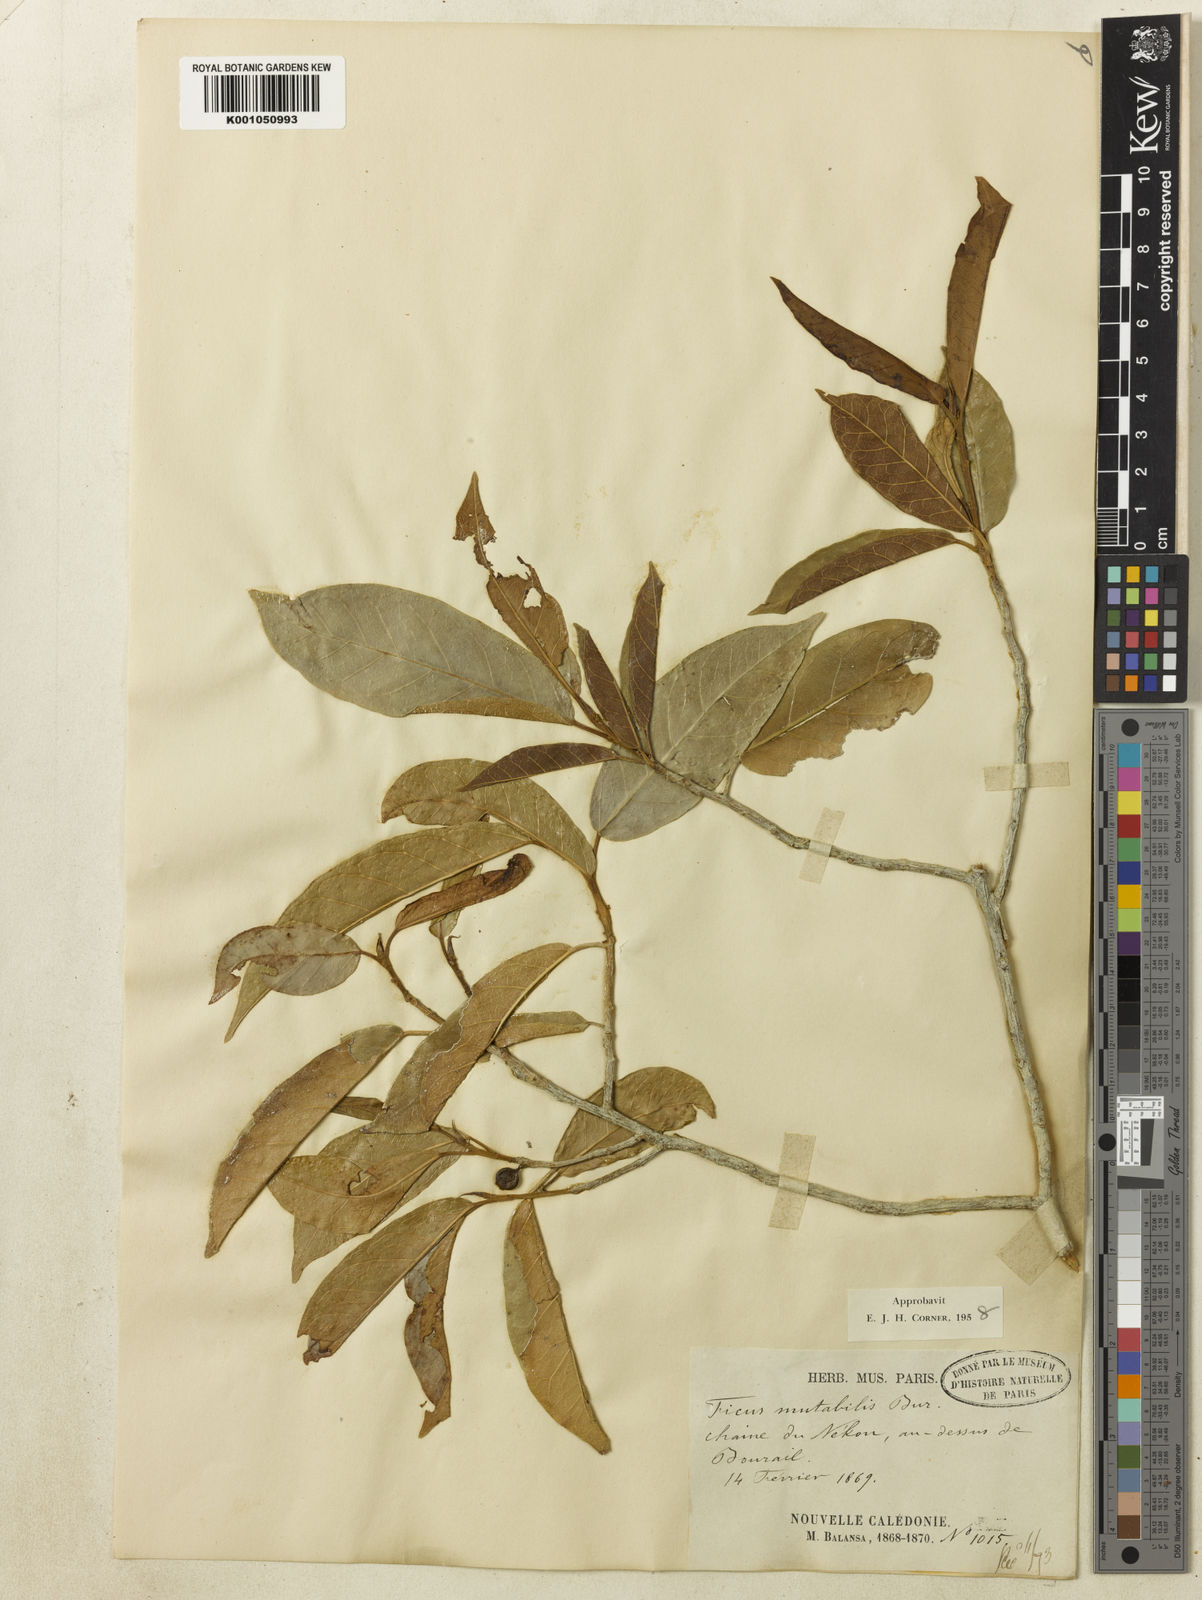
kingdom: Plantae
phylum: Tracheophyta
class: Magnoliopsida
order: Rosales
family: Moraceae
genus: Ficus
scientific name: Ficus mutabilis
